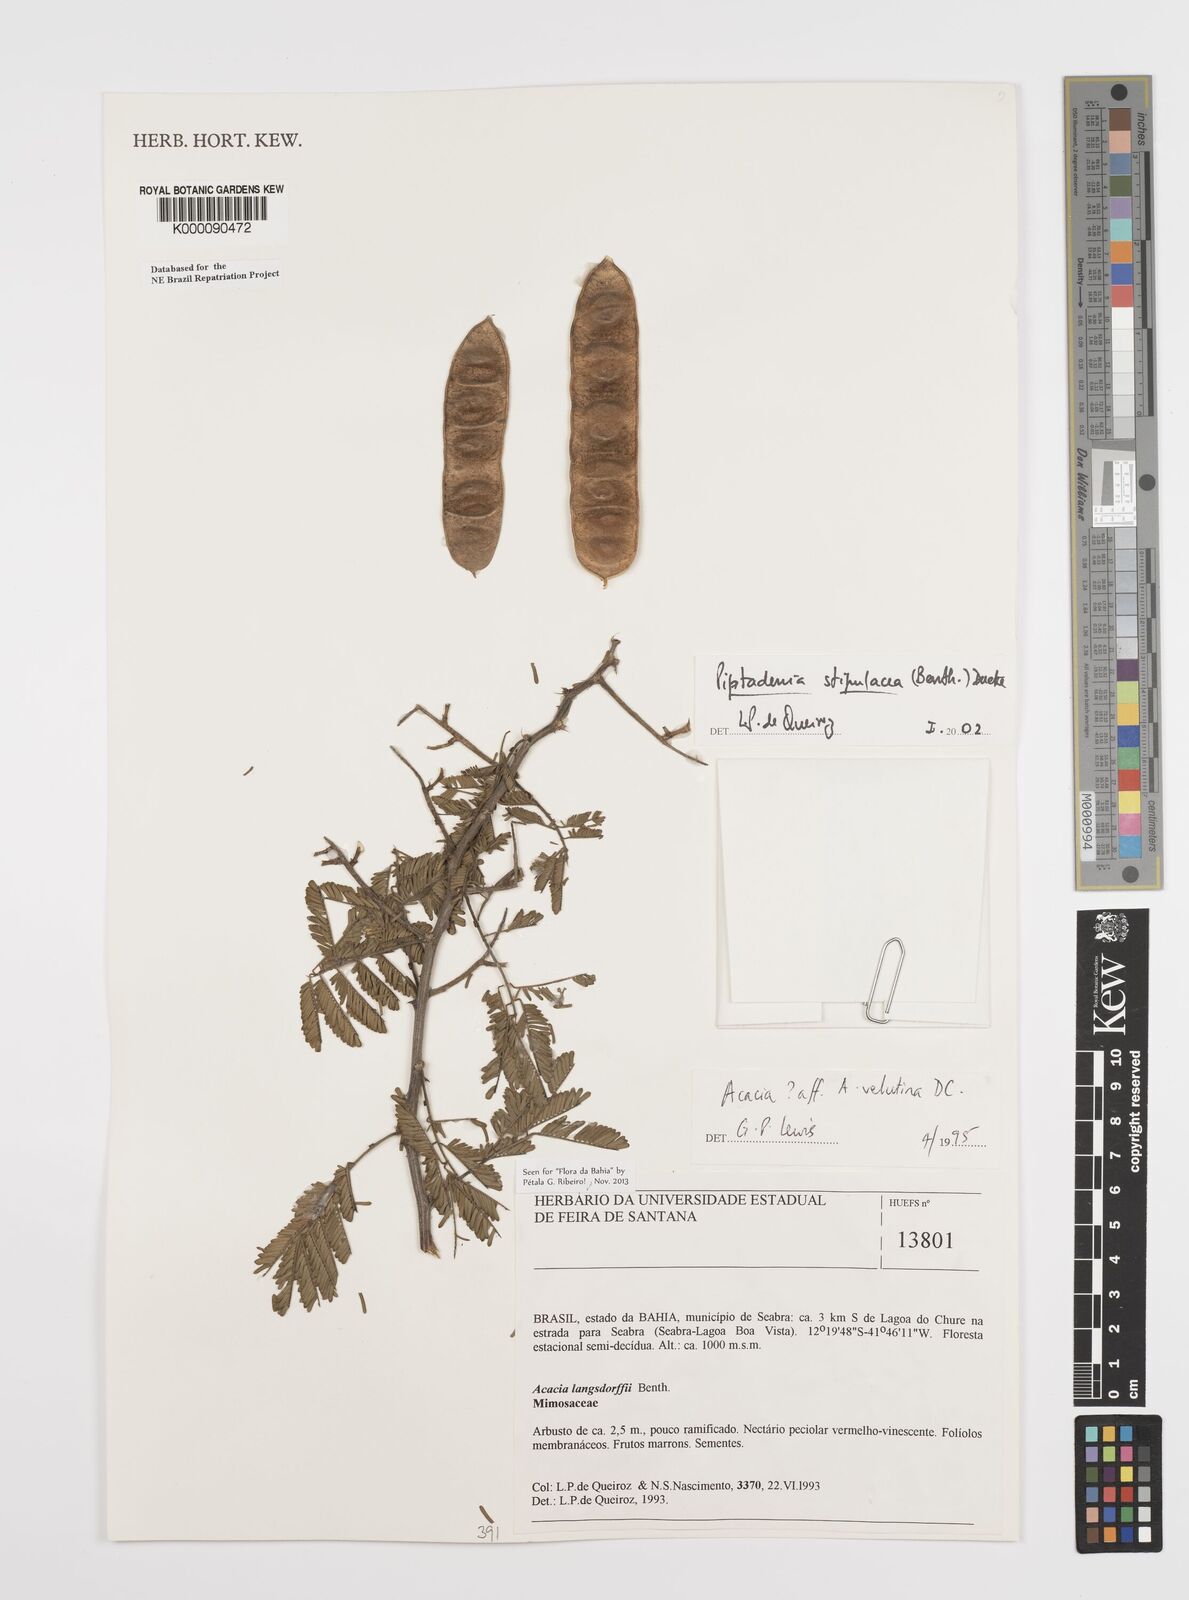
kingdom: Plantae
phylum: Tracheophyta
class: Magnoliopsida
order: Fabales
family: Fabaceae
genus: Piptadenia
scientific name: Piptadenia retusa
